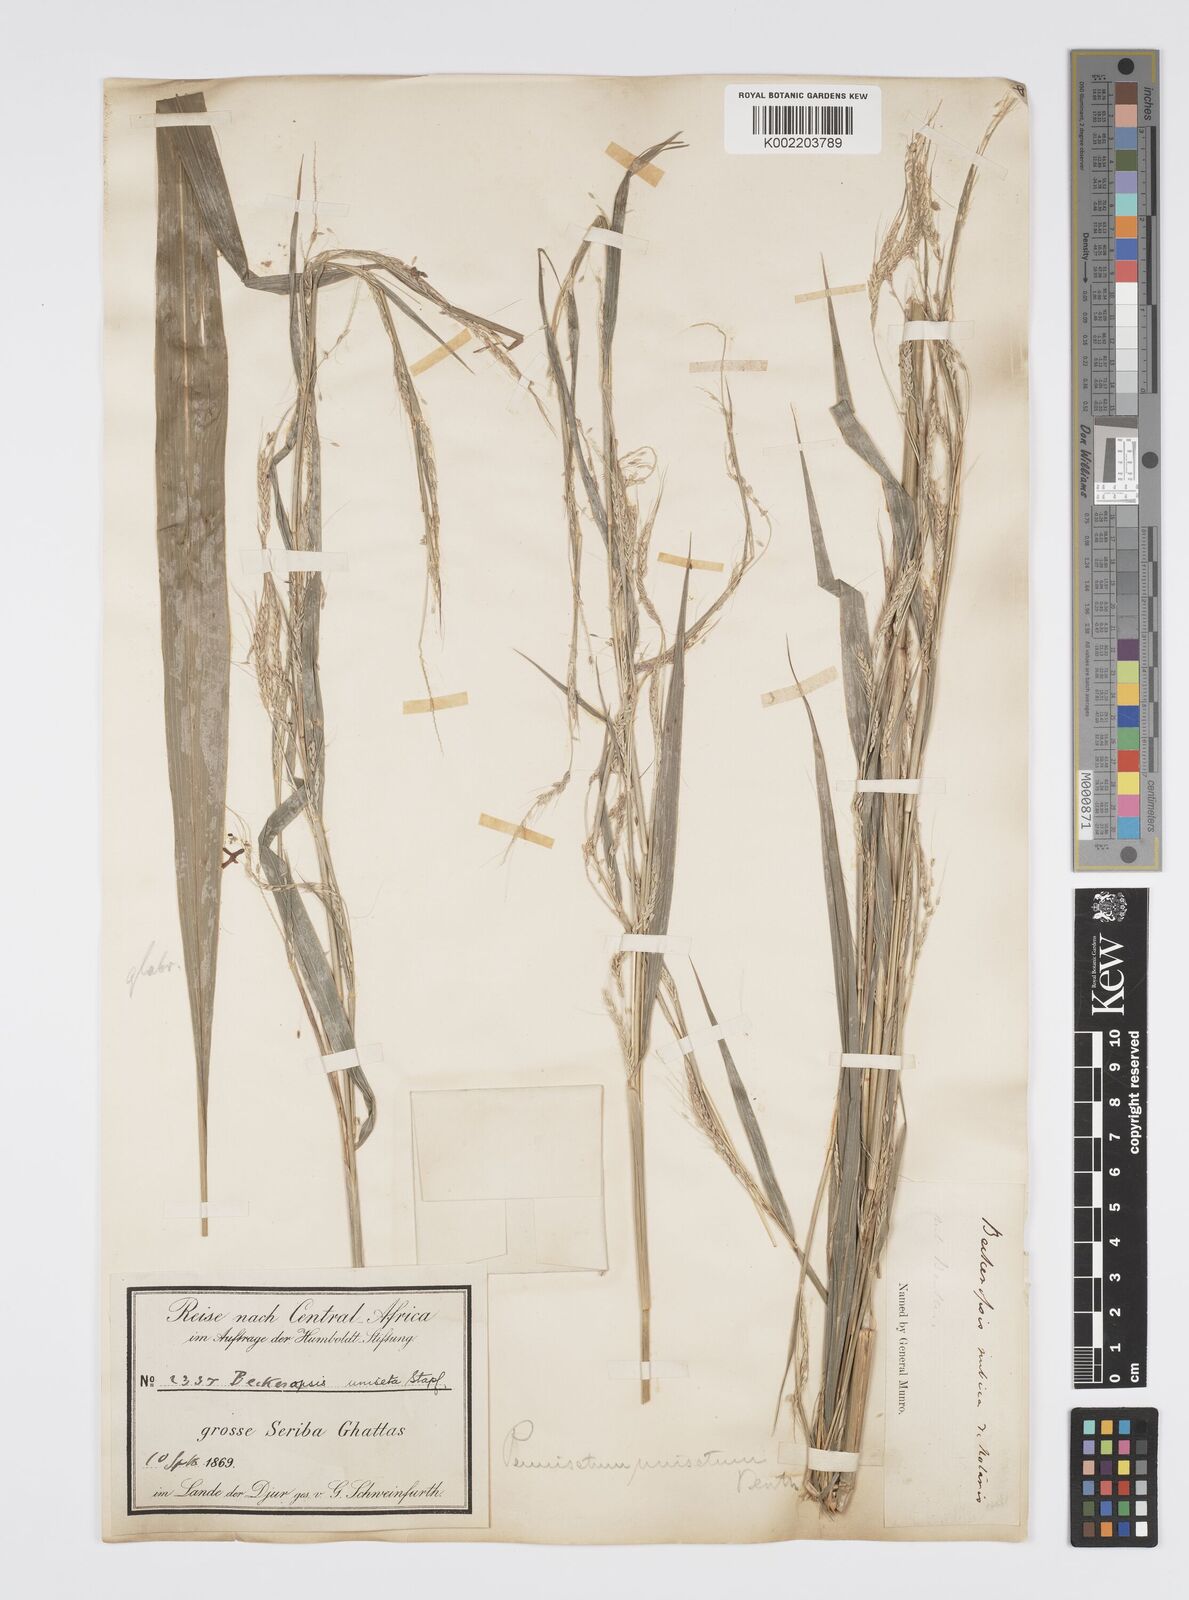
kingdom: Plantae
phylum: Tracheophyta
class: Liliopsida
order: Poales
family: Poaceae
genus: Cenchrus
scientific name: Cenchrus unisetus
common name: Natal grass
